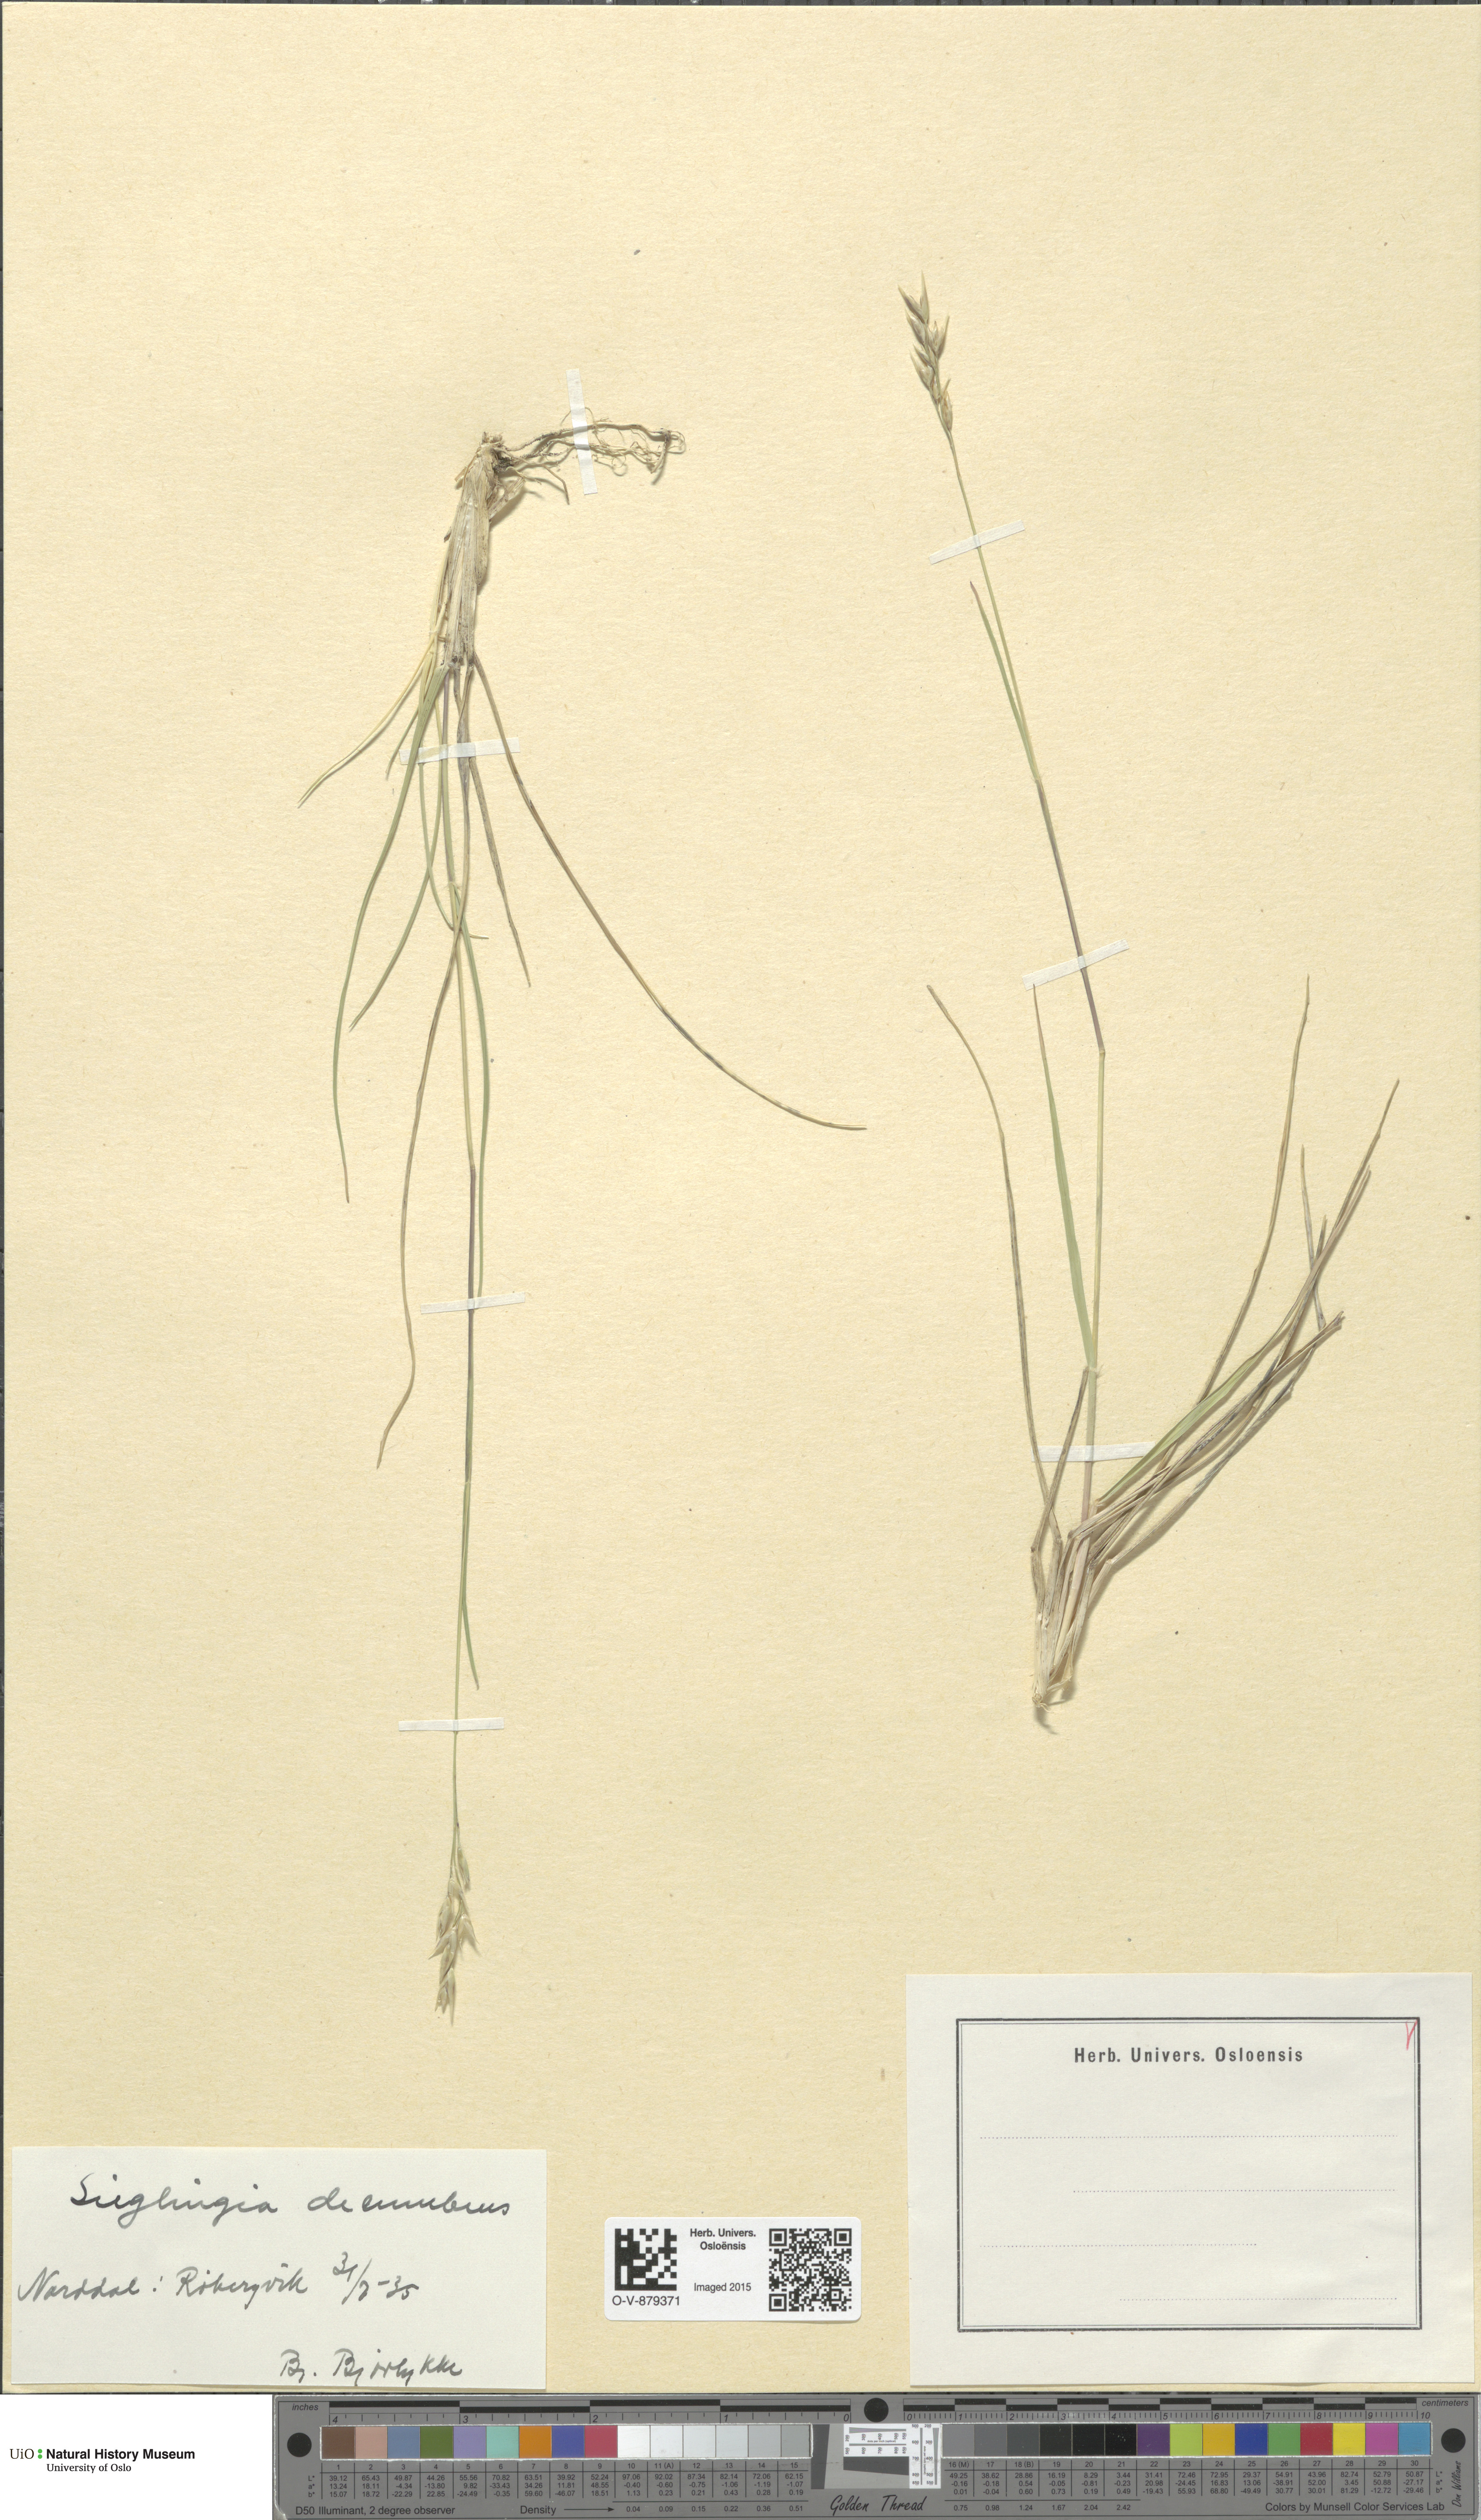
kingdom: Plantae
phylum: Tracheophyta
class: Liliopsida
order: Poales
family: Poaceae
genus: Danthonia
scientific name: Danthonia decumbens
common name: Common heathgrass
